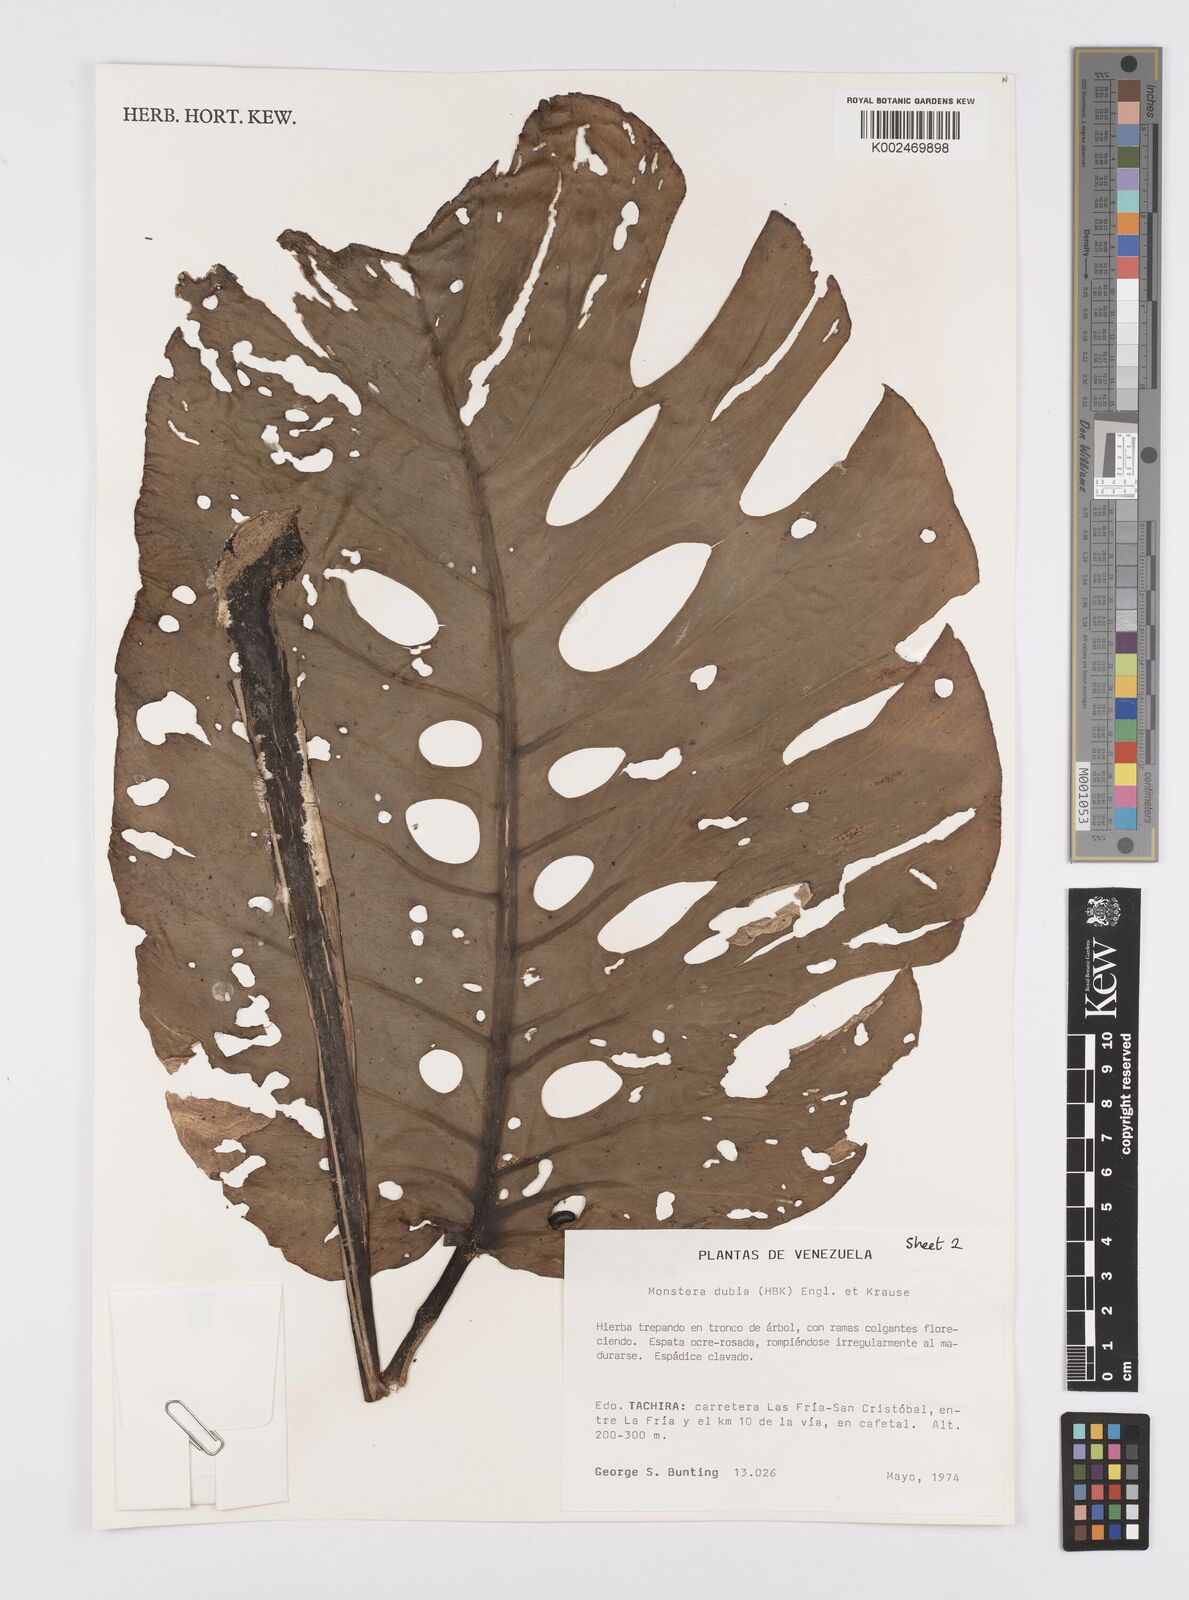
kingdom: Plantae
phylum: Tracheophyta
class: Liliopsida
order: Alismatales
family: Araceae
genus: Monstera
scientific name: Monstera dubia
